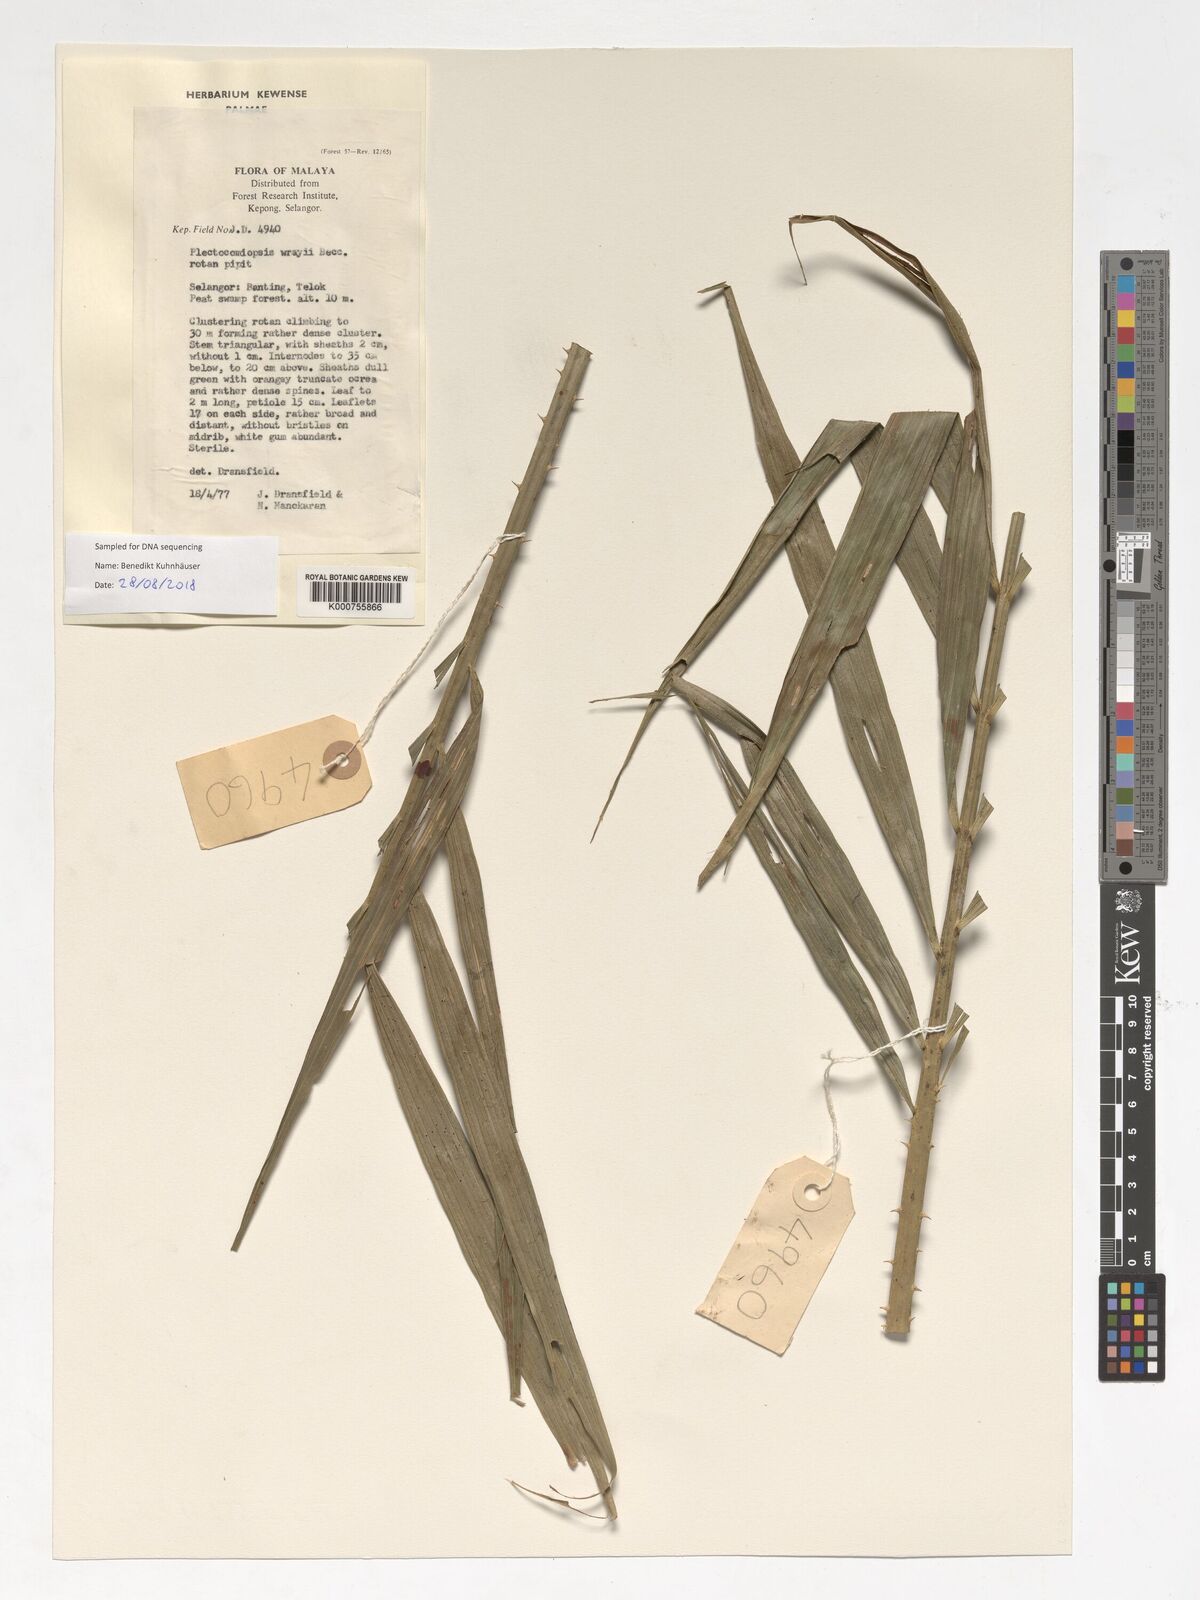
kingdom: Plantae
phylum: Tracheophyta
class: Liliopsida
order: Arecales
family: Arecaceae
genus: Plectocomiopsis
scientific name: Plectocomiopsis wrayi
